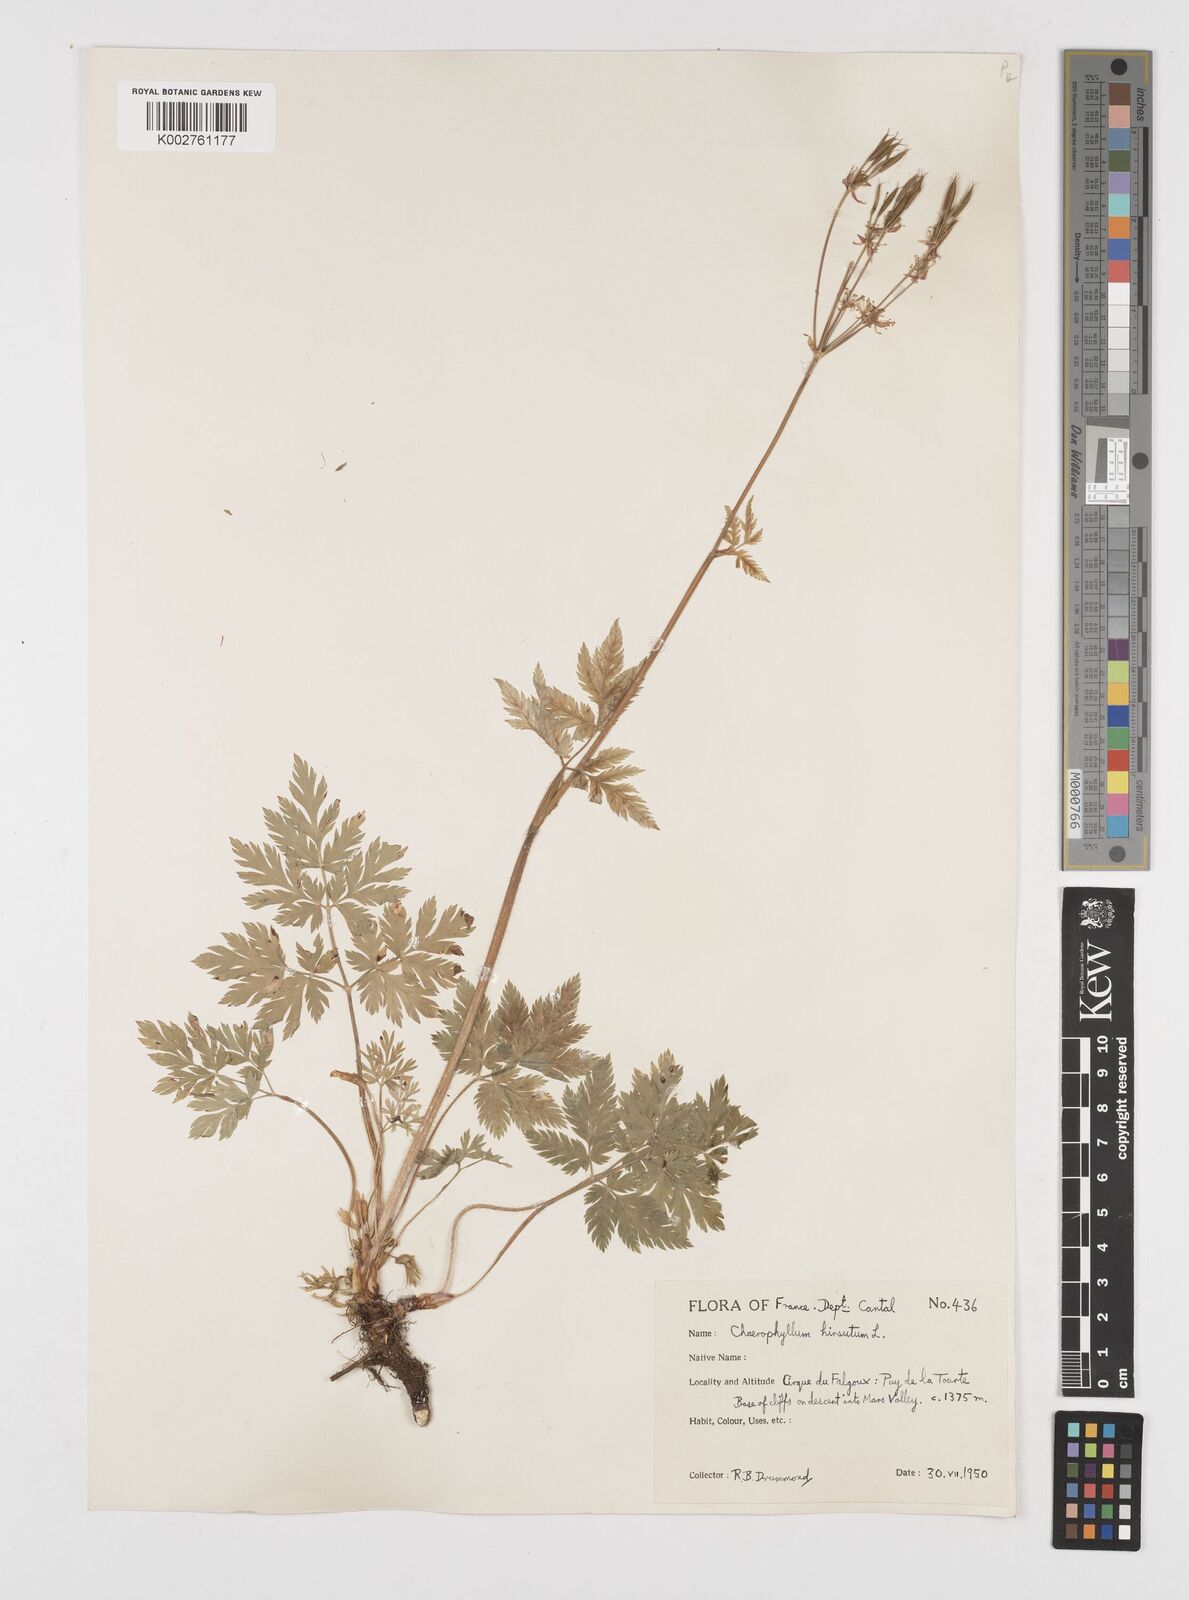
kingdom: Plantae
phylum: Tracheophyta
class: Magnoliopsida
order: Apiales
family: Apiaceae
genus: Chaerophyllum
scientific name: Chaerophyllum hirsutum
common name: Hairy chervil
